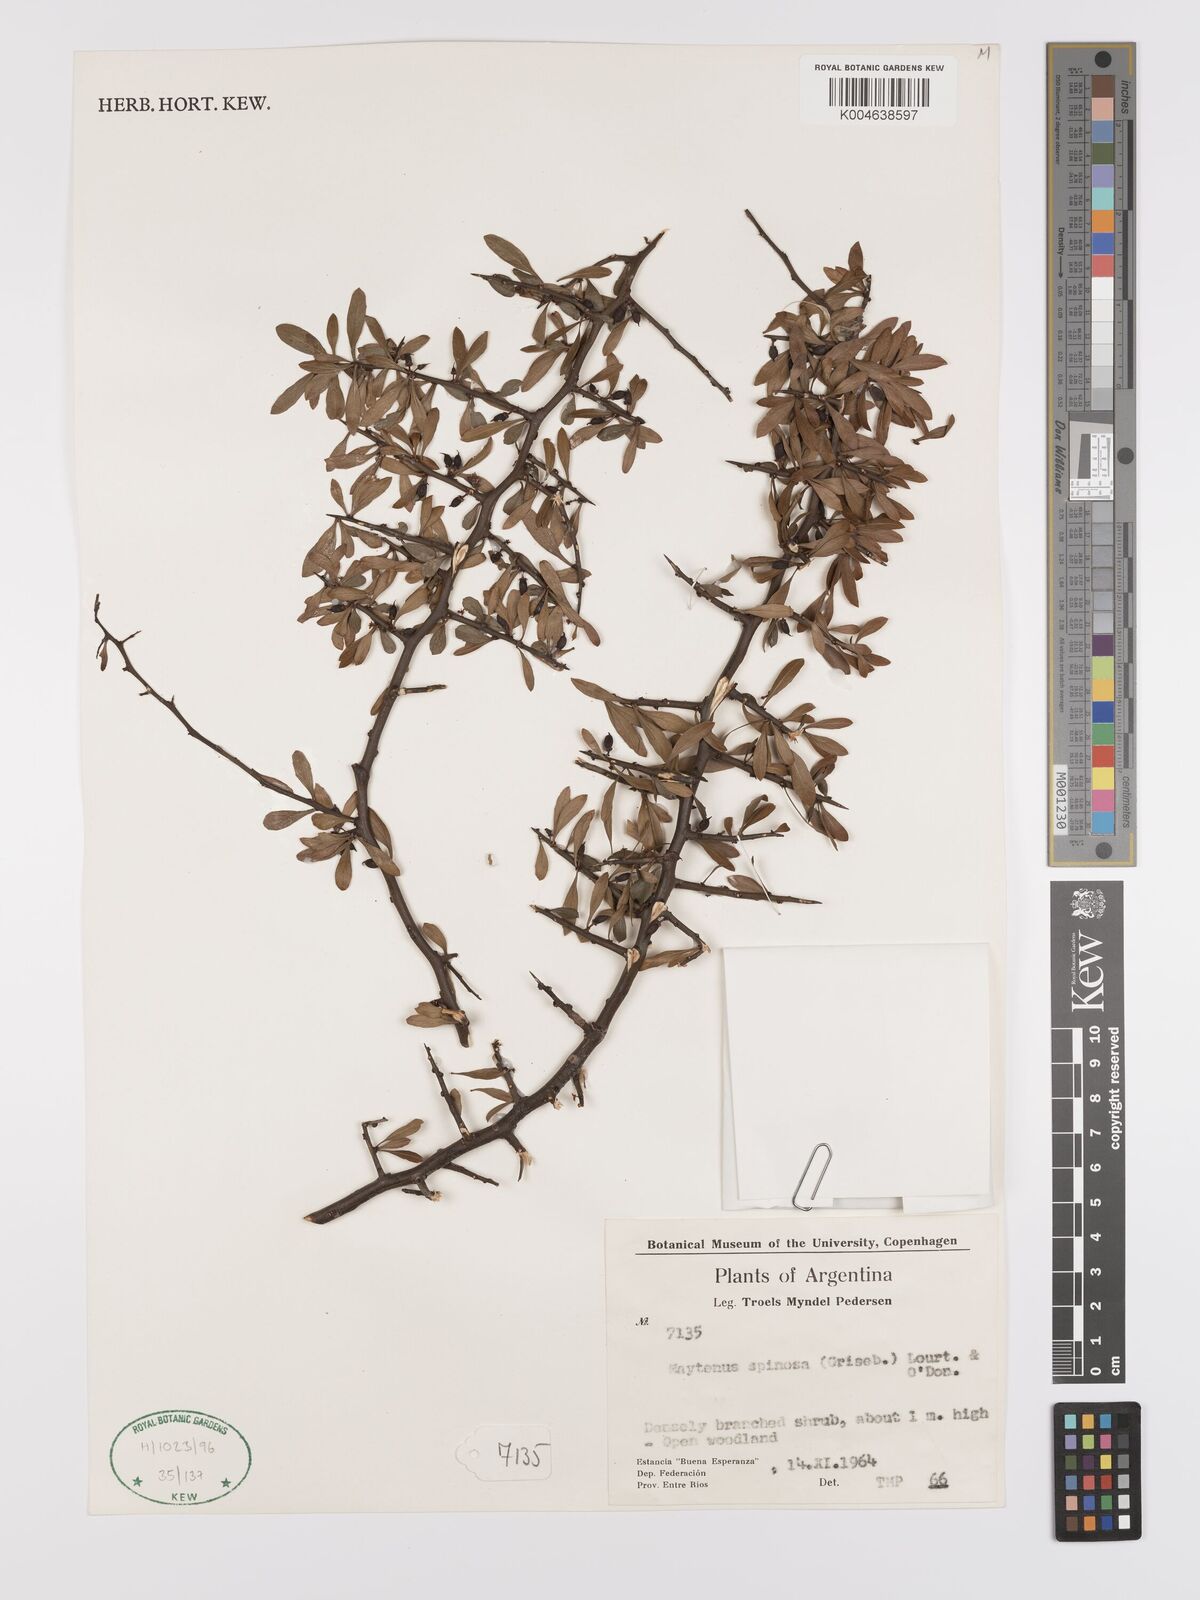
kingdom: Plantae
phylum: Tracheophyta
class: Magnoliopsida
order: Celastrales
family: Celastraceae
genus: Monteverdia
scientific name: Monteverdia spinosa
